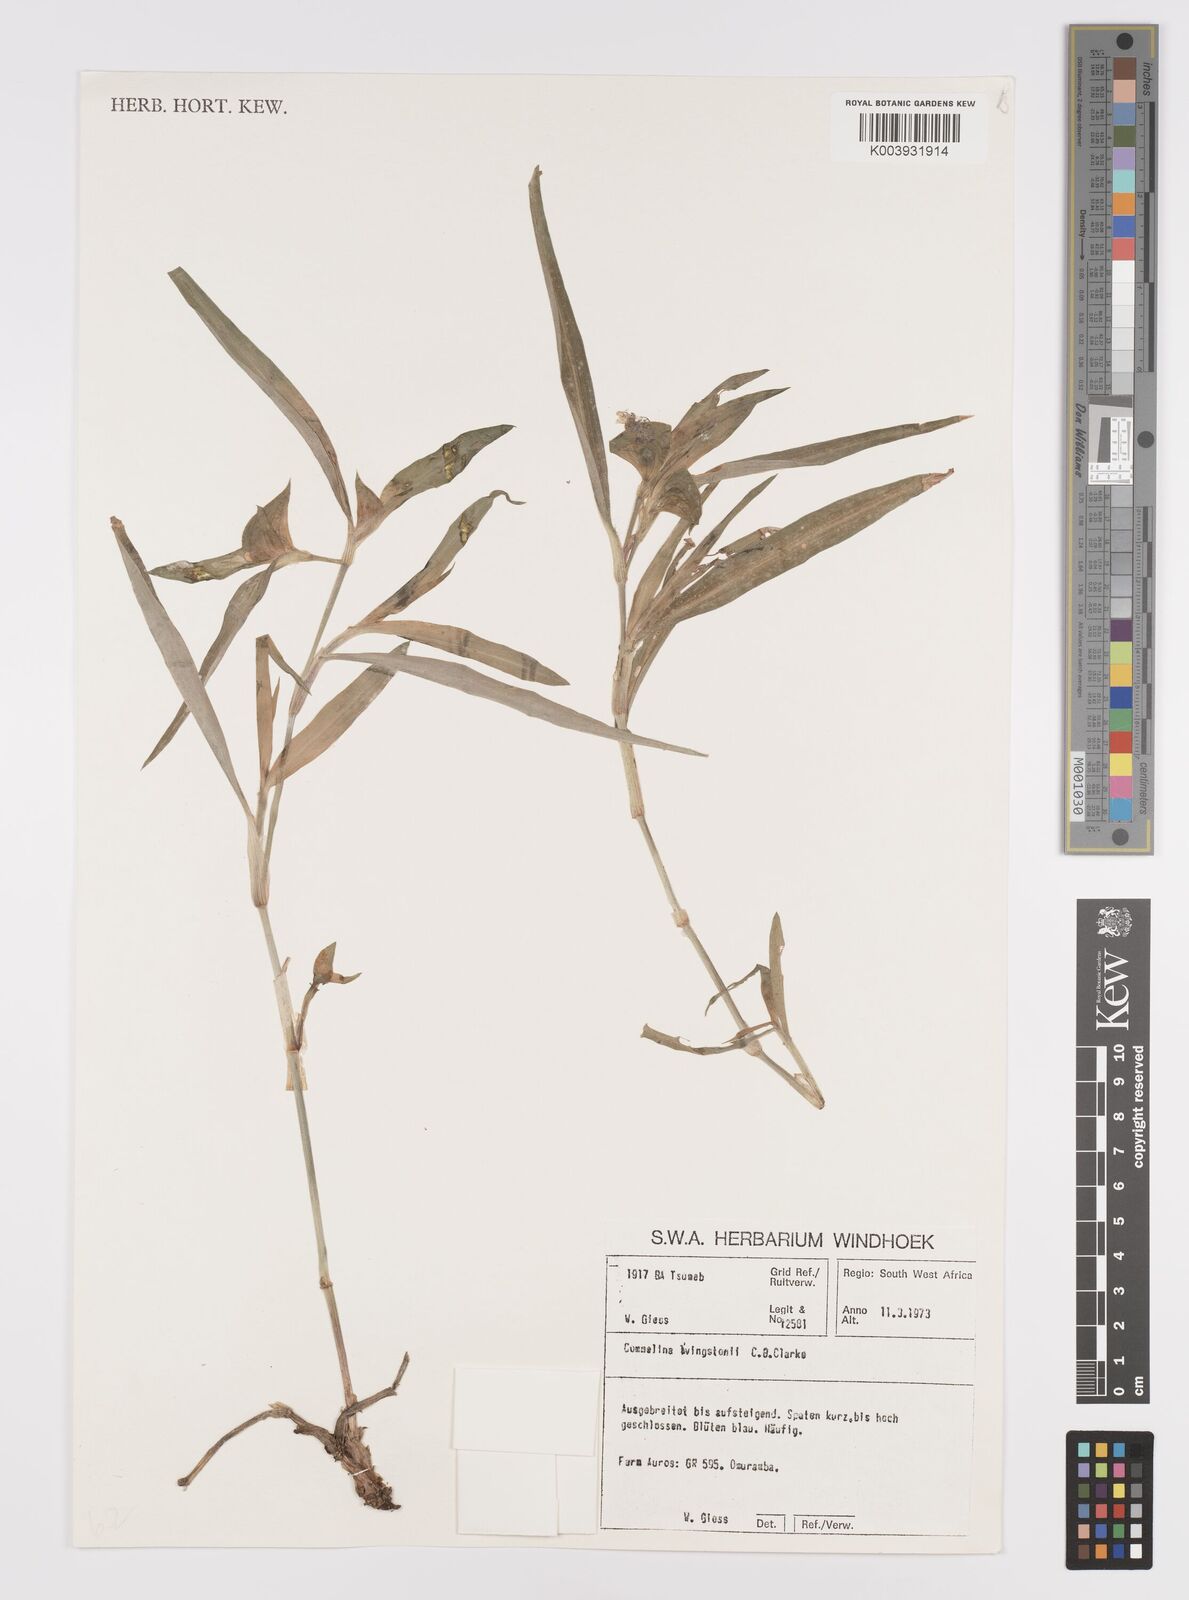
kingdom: Plantae
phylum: Tracheophyta
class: Liliopsida
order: Commelinales
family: Commelinaceae
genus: Commelina
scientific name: Commelina erecta
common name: Blousel blommetjie
